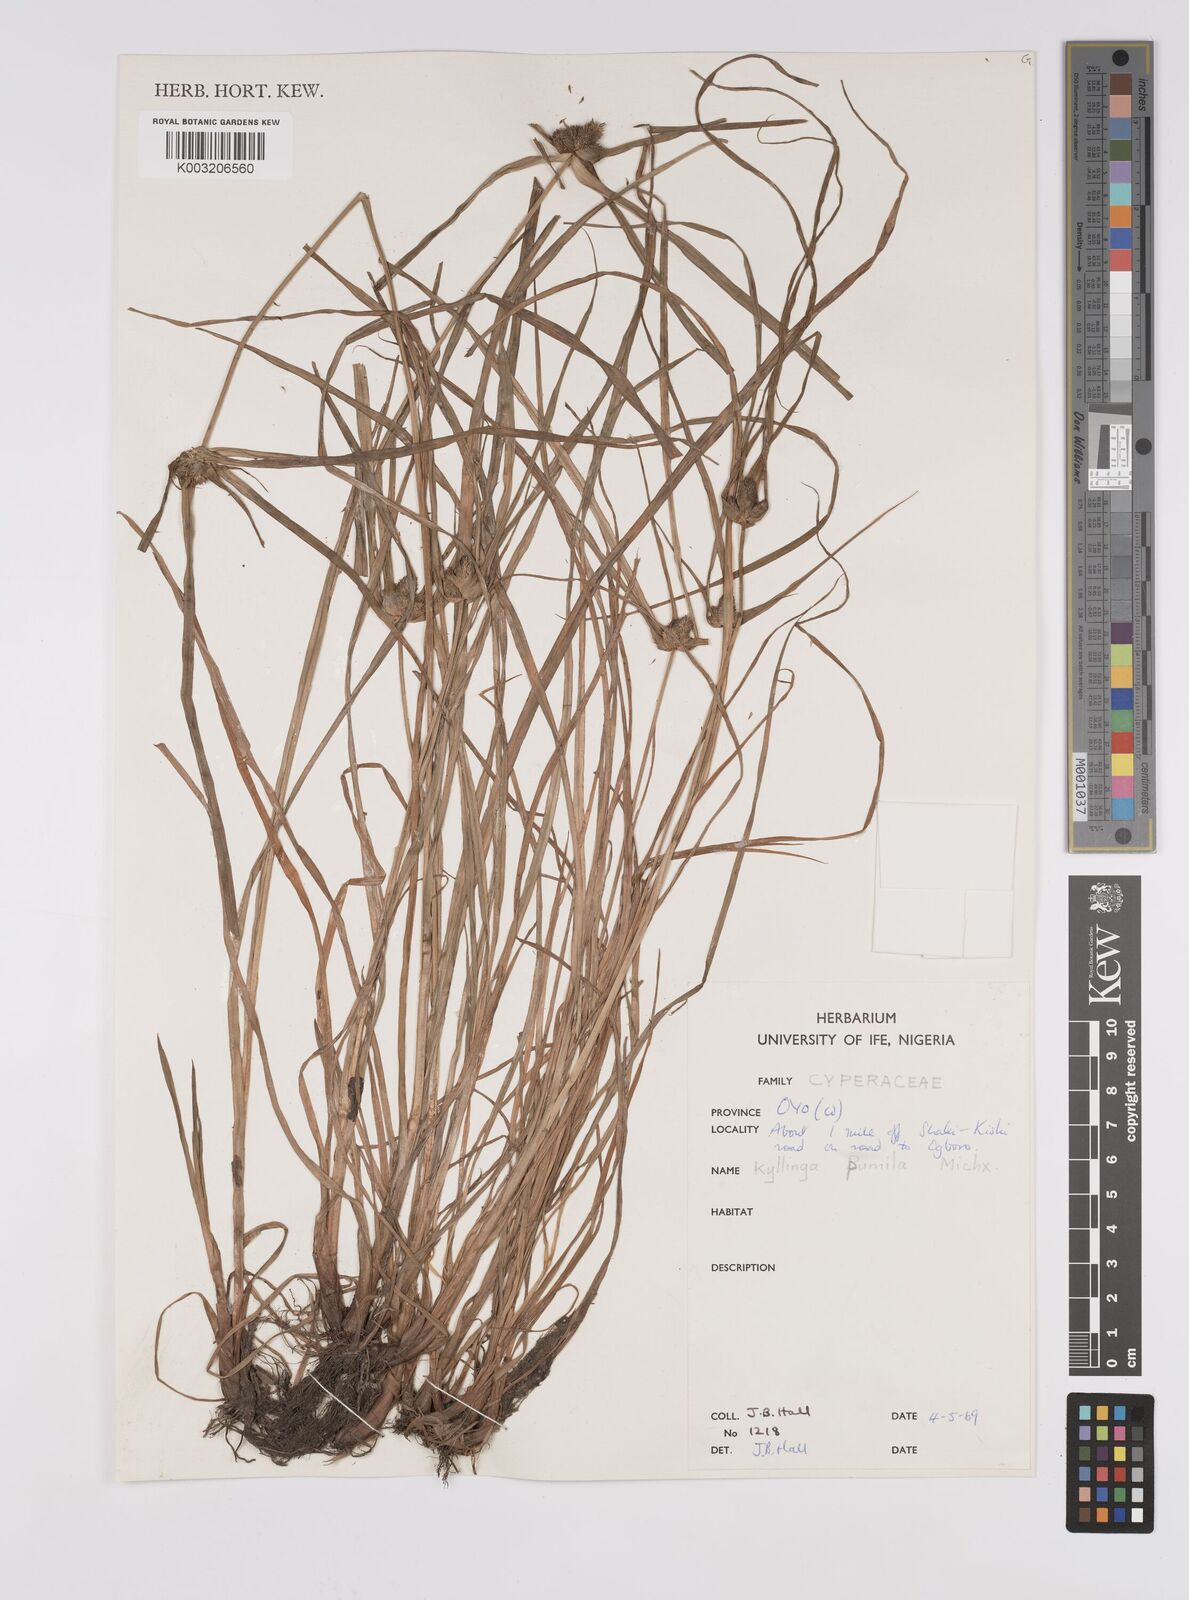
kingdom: Plantae
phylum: Tracheophyta
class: Liliopsida
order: Poales
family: Cyperaceae
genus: Cyperus
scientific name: Cyperus
